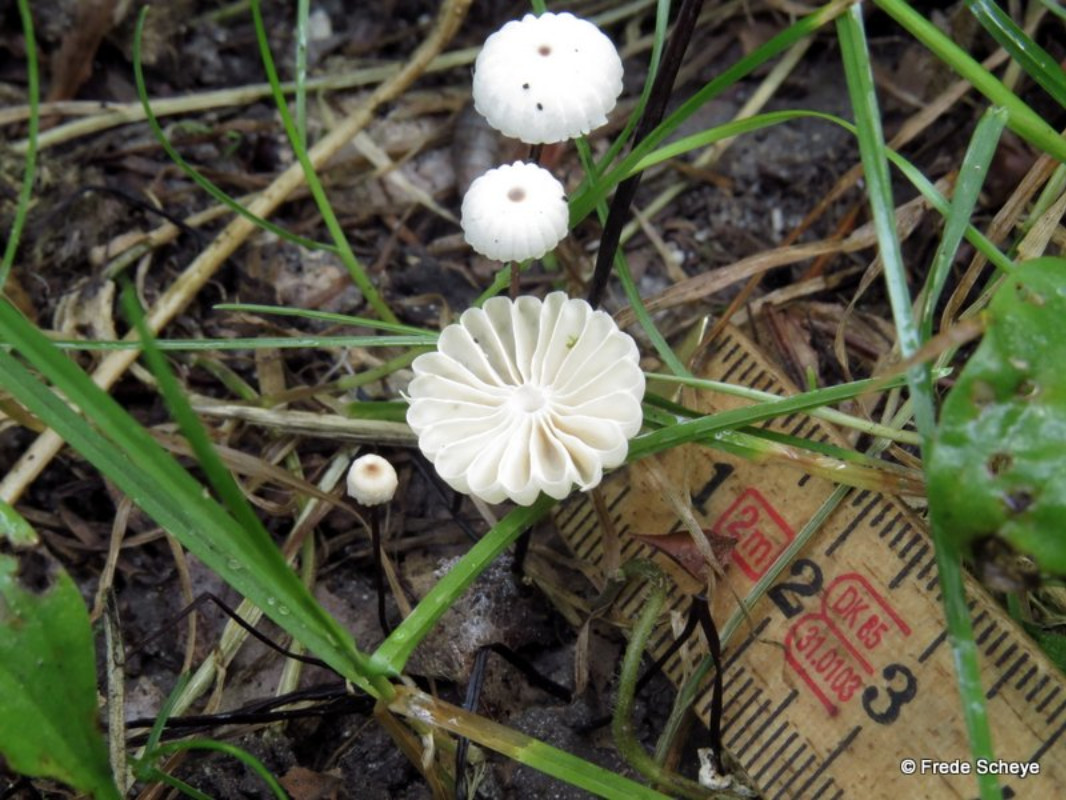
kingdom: Fungi
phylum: Basidiomycota
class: Agaricomycetes
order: Agaricales
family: Marasmiaceae
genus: Marasmius
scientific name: Marasmius rotula
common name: hjul-bruskhat
